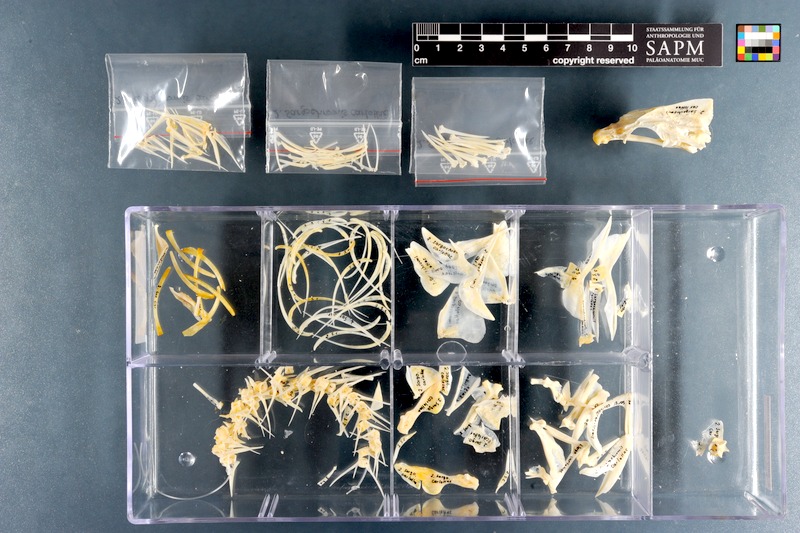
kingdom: Animalia
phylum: Chordata
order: Perciformes
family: Cichlidae
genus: Sargochromis
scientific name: Sargochromis carlottae
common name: Rainbow happy
